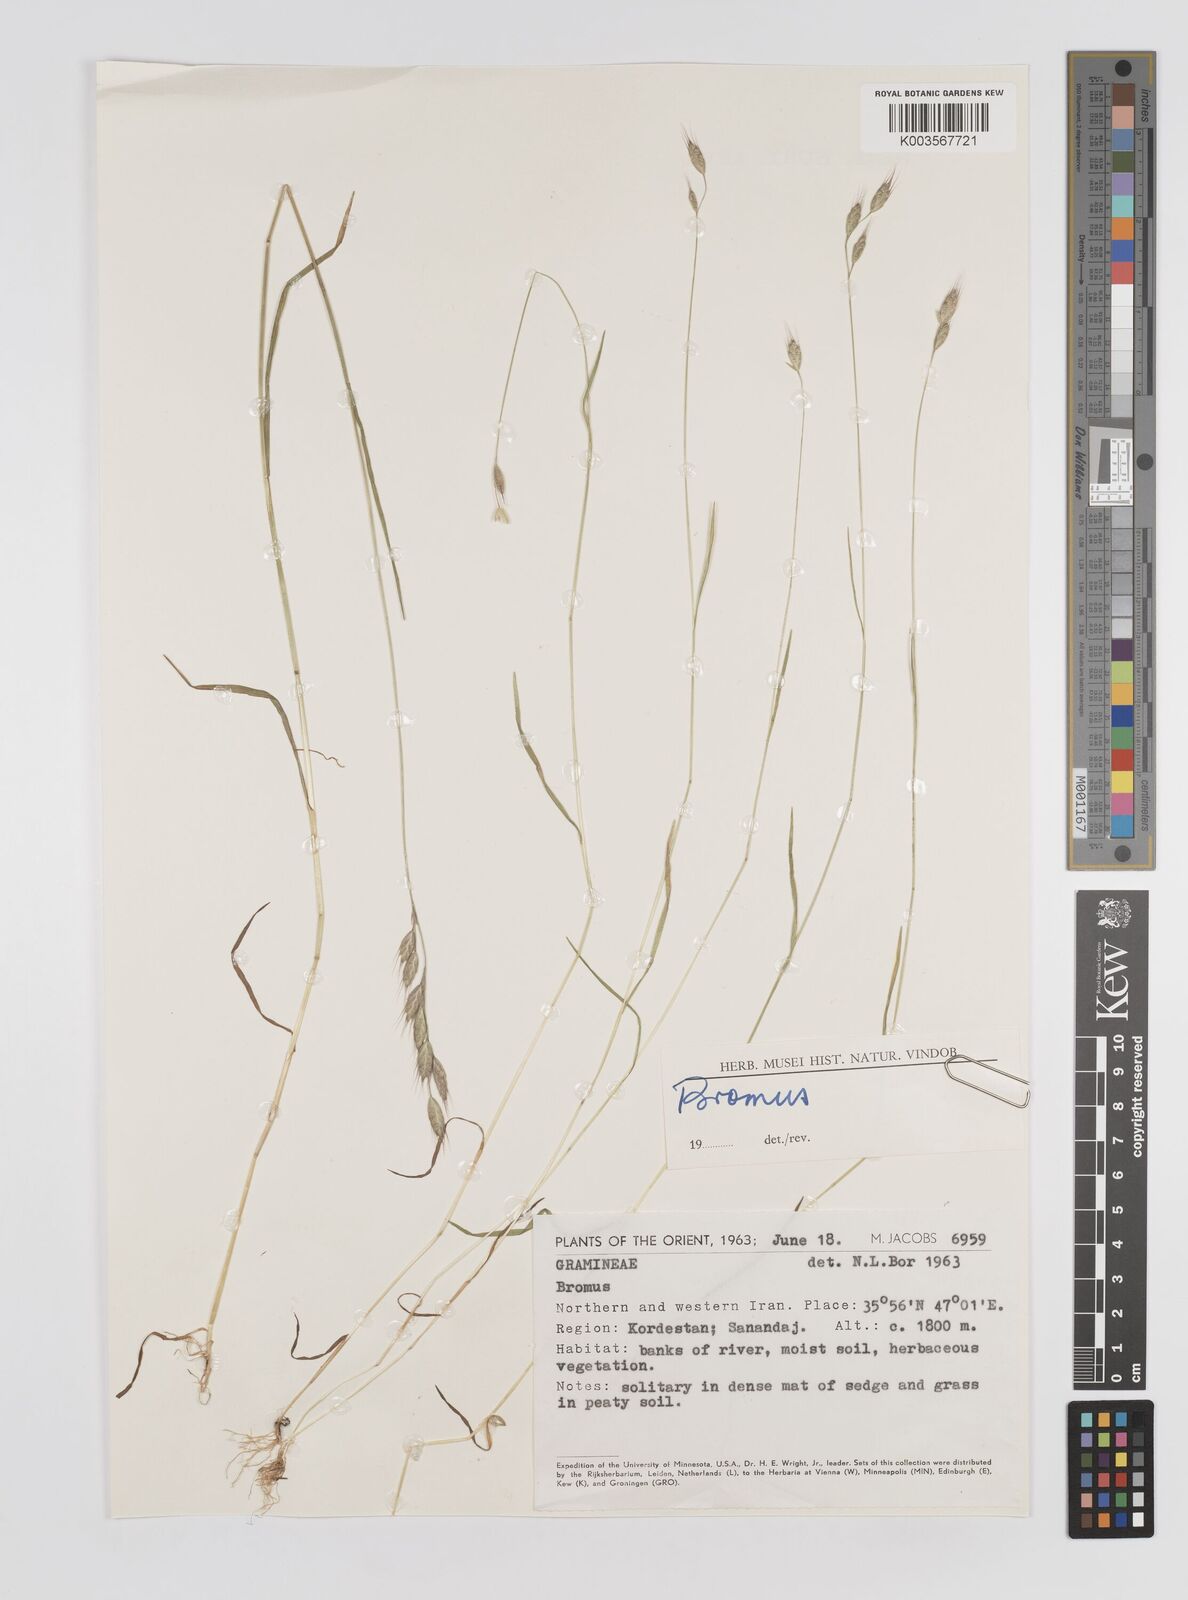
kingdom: Plantae
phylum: Tracheophyta
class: Liliopsida
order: Poales
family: Poaceae
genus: Bromus
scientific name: Bromus
